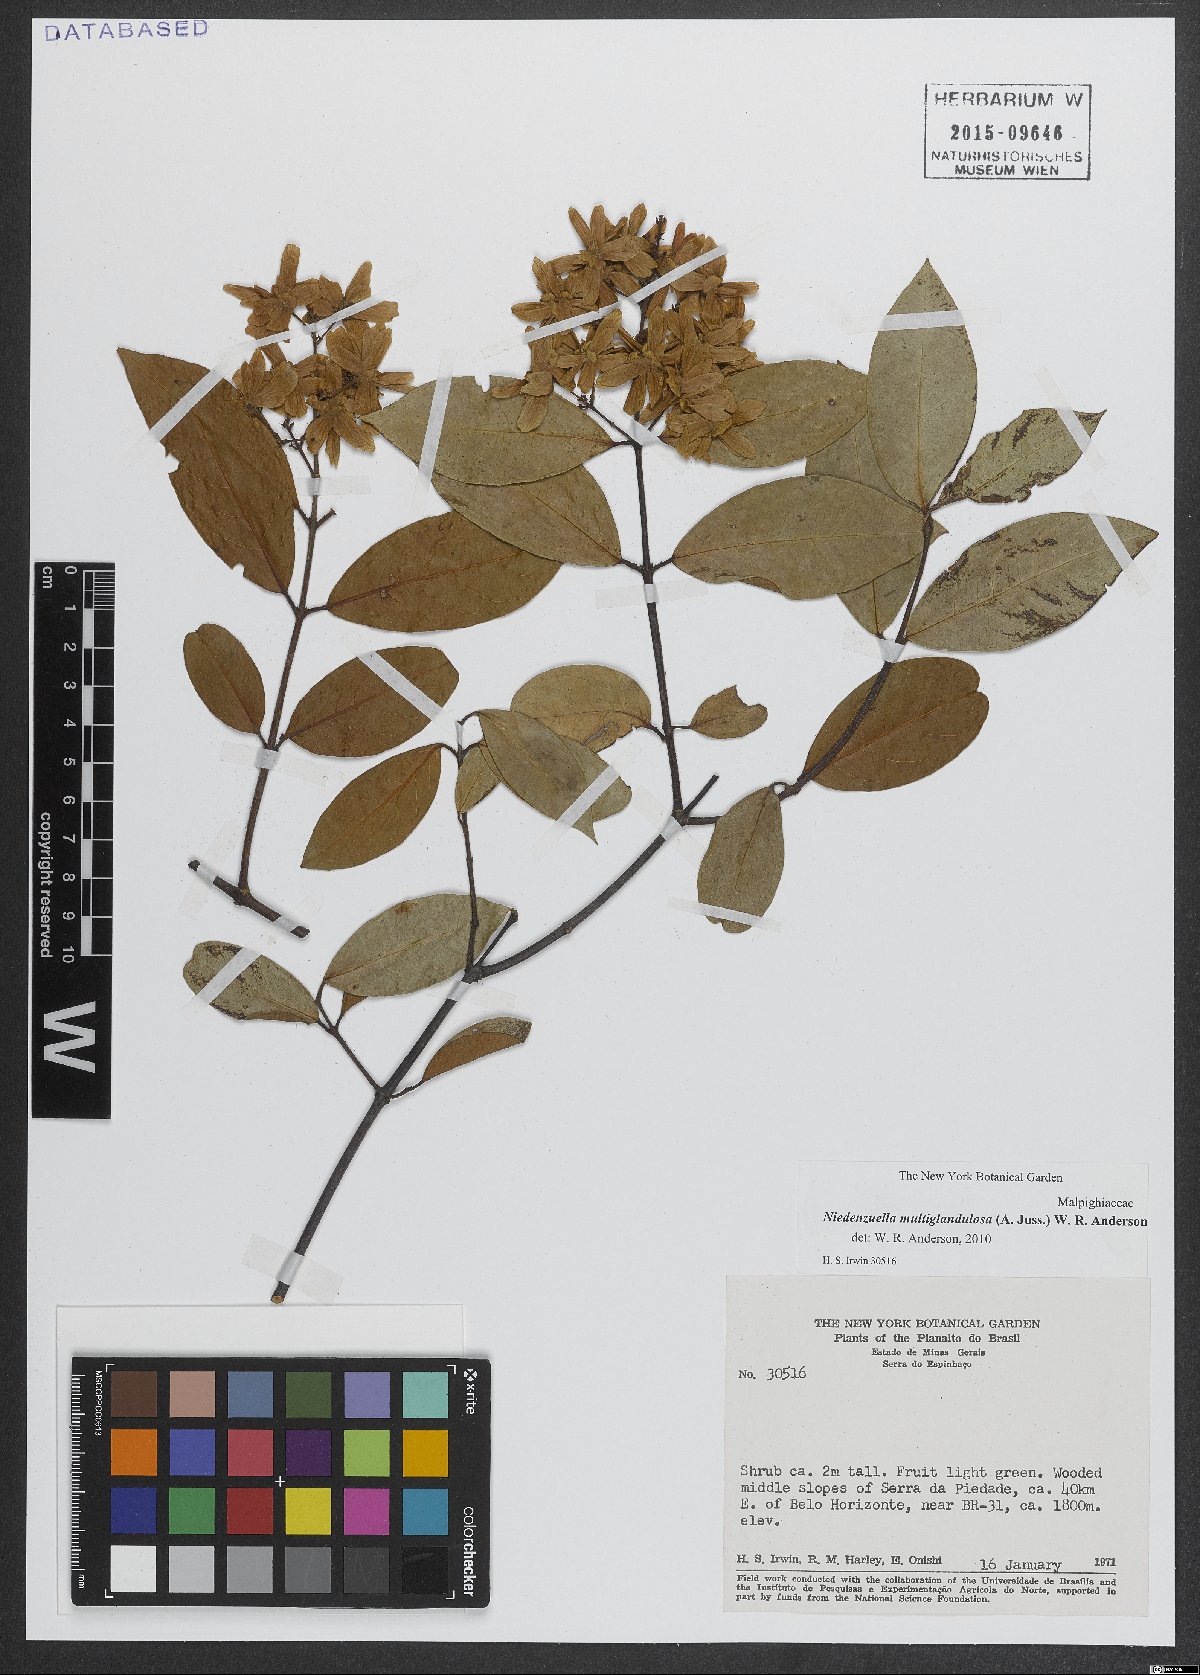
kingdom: Plantae
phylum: Tracheophyta
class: Magnoliopsida
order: Malpighiales
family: Malpighiaceae
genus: Niedenzuella
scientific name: Niedenzuella multiglandulosa
